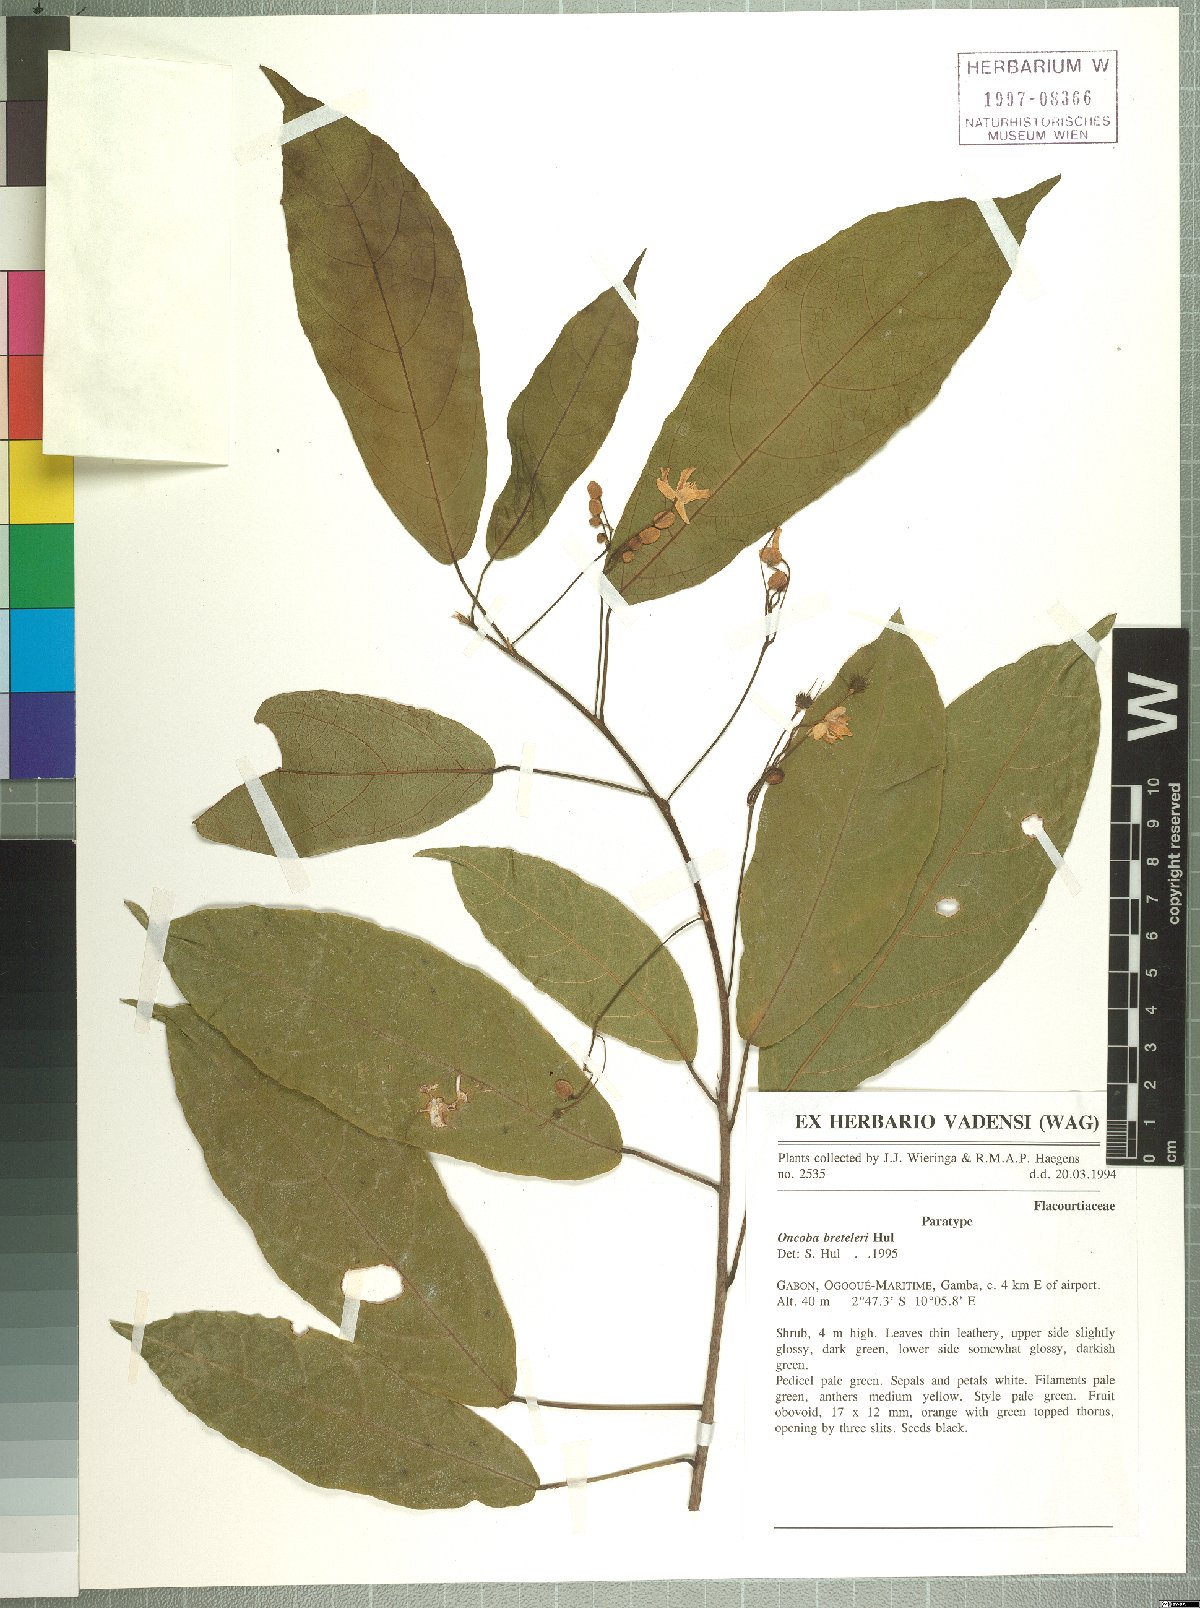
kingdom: Plantae
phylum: Tracheophyta
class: Magnoliopsida
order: Malpighiales
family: Salicaceae
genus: Oncoba
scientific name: Oncoba breteleri
